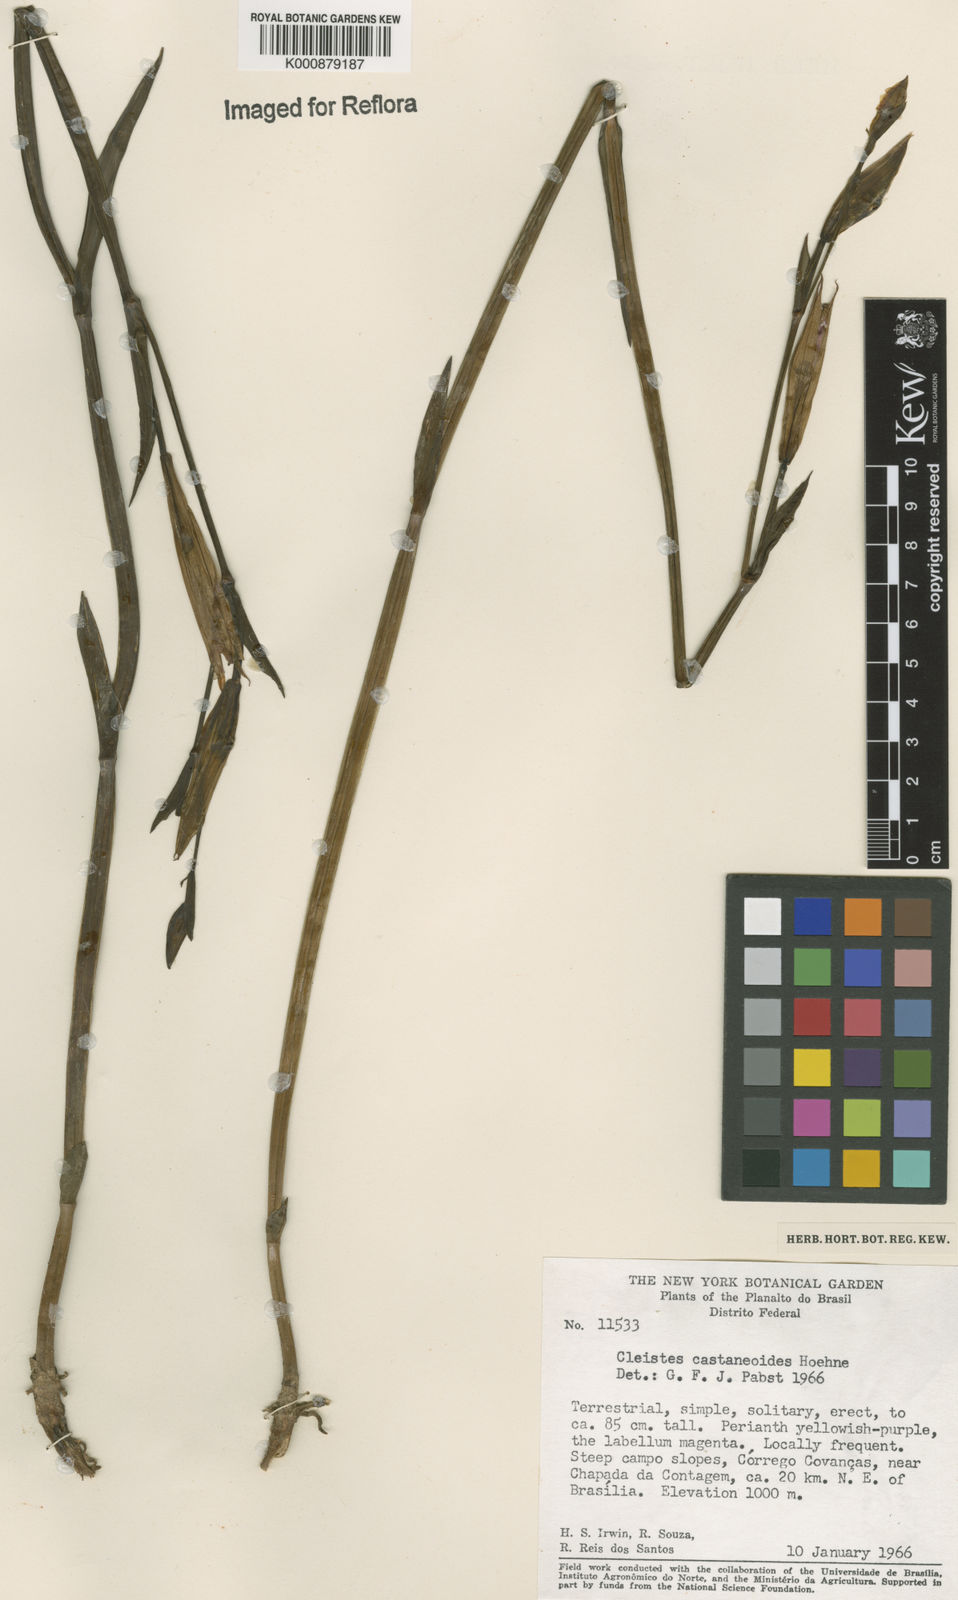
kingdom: Plantae
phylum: Tracheophyta
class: Liliopsida
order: Asparagales
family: Orchidaceae
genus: Cleistes
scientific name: Cleistes rosea
